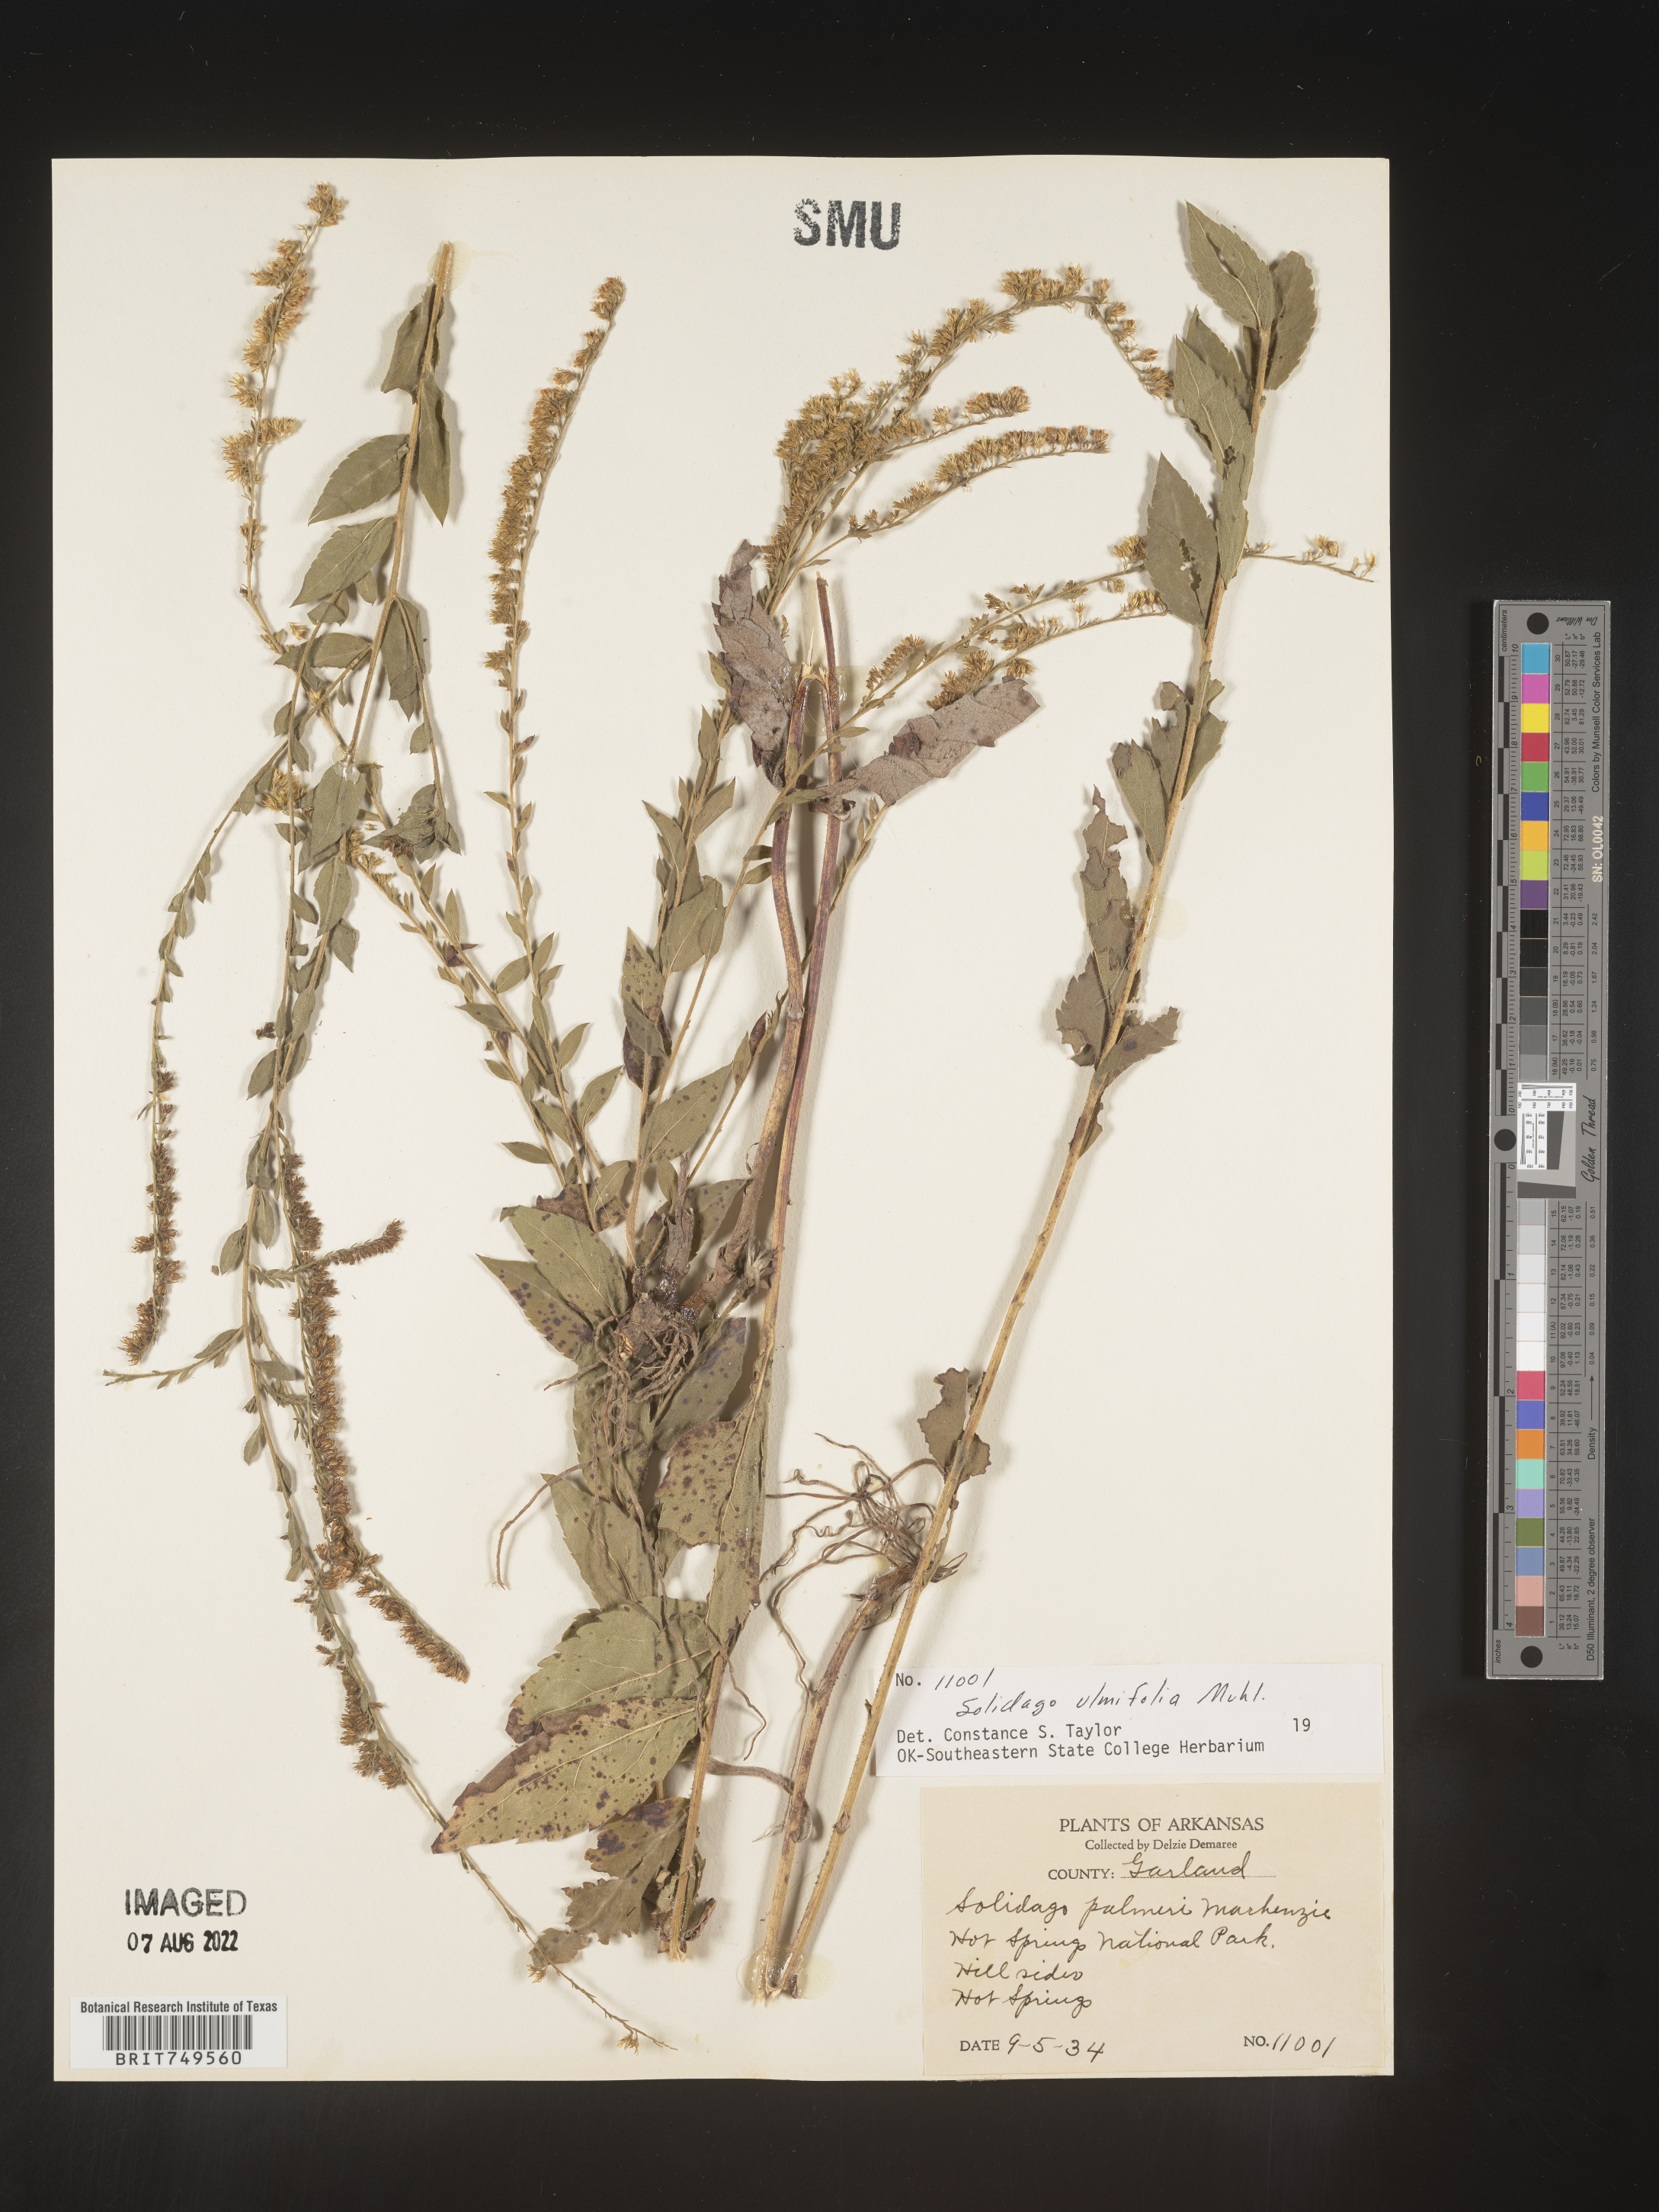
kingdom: Plantae
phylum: Tracheophyta
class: Magnoliopsida
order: Asterales
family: Asteraceae
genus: Solidago
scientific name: Solidago ulmifolia
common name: Elm-leaf goldenrod
